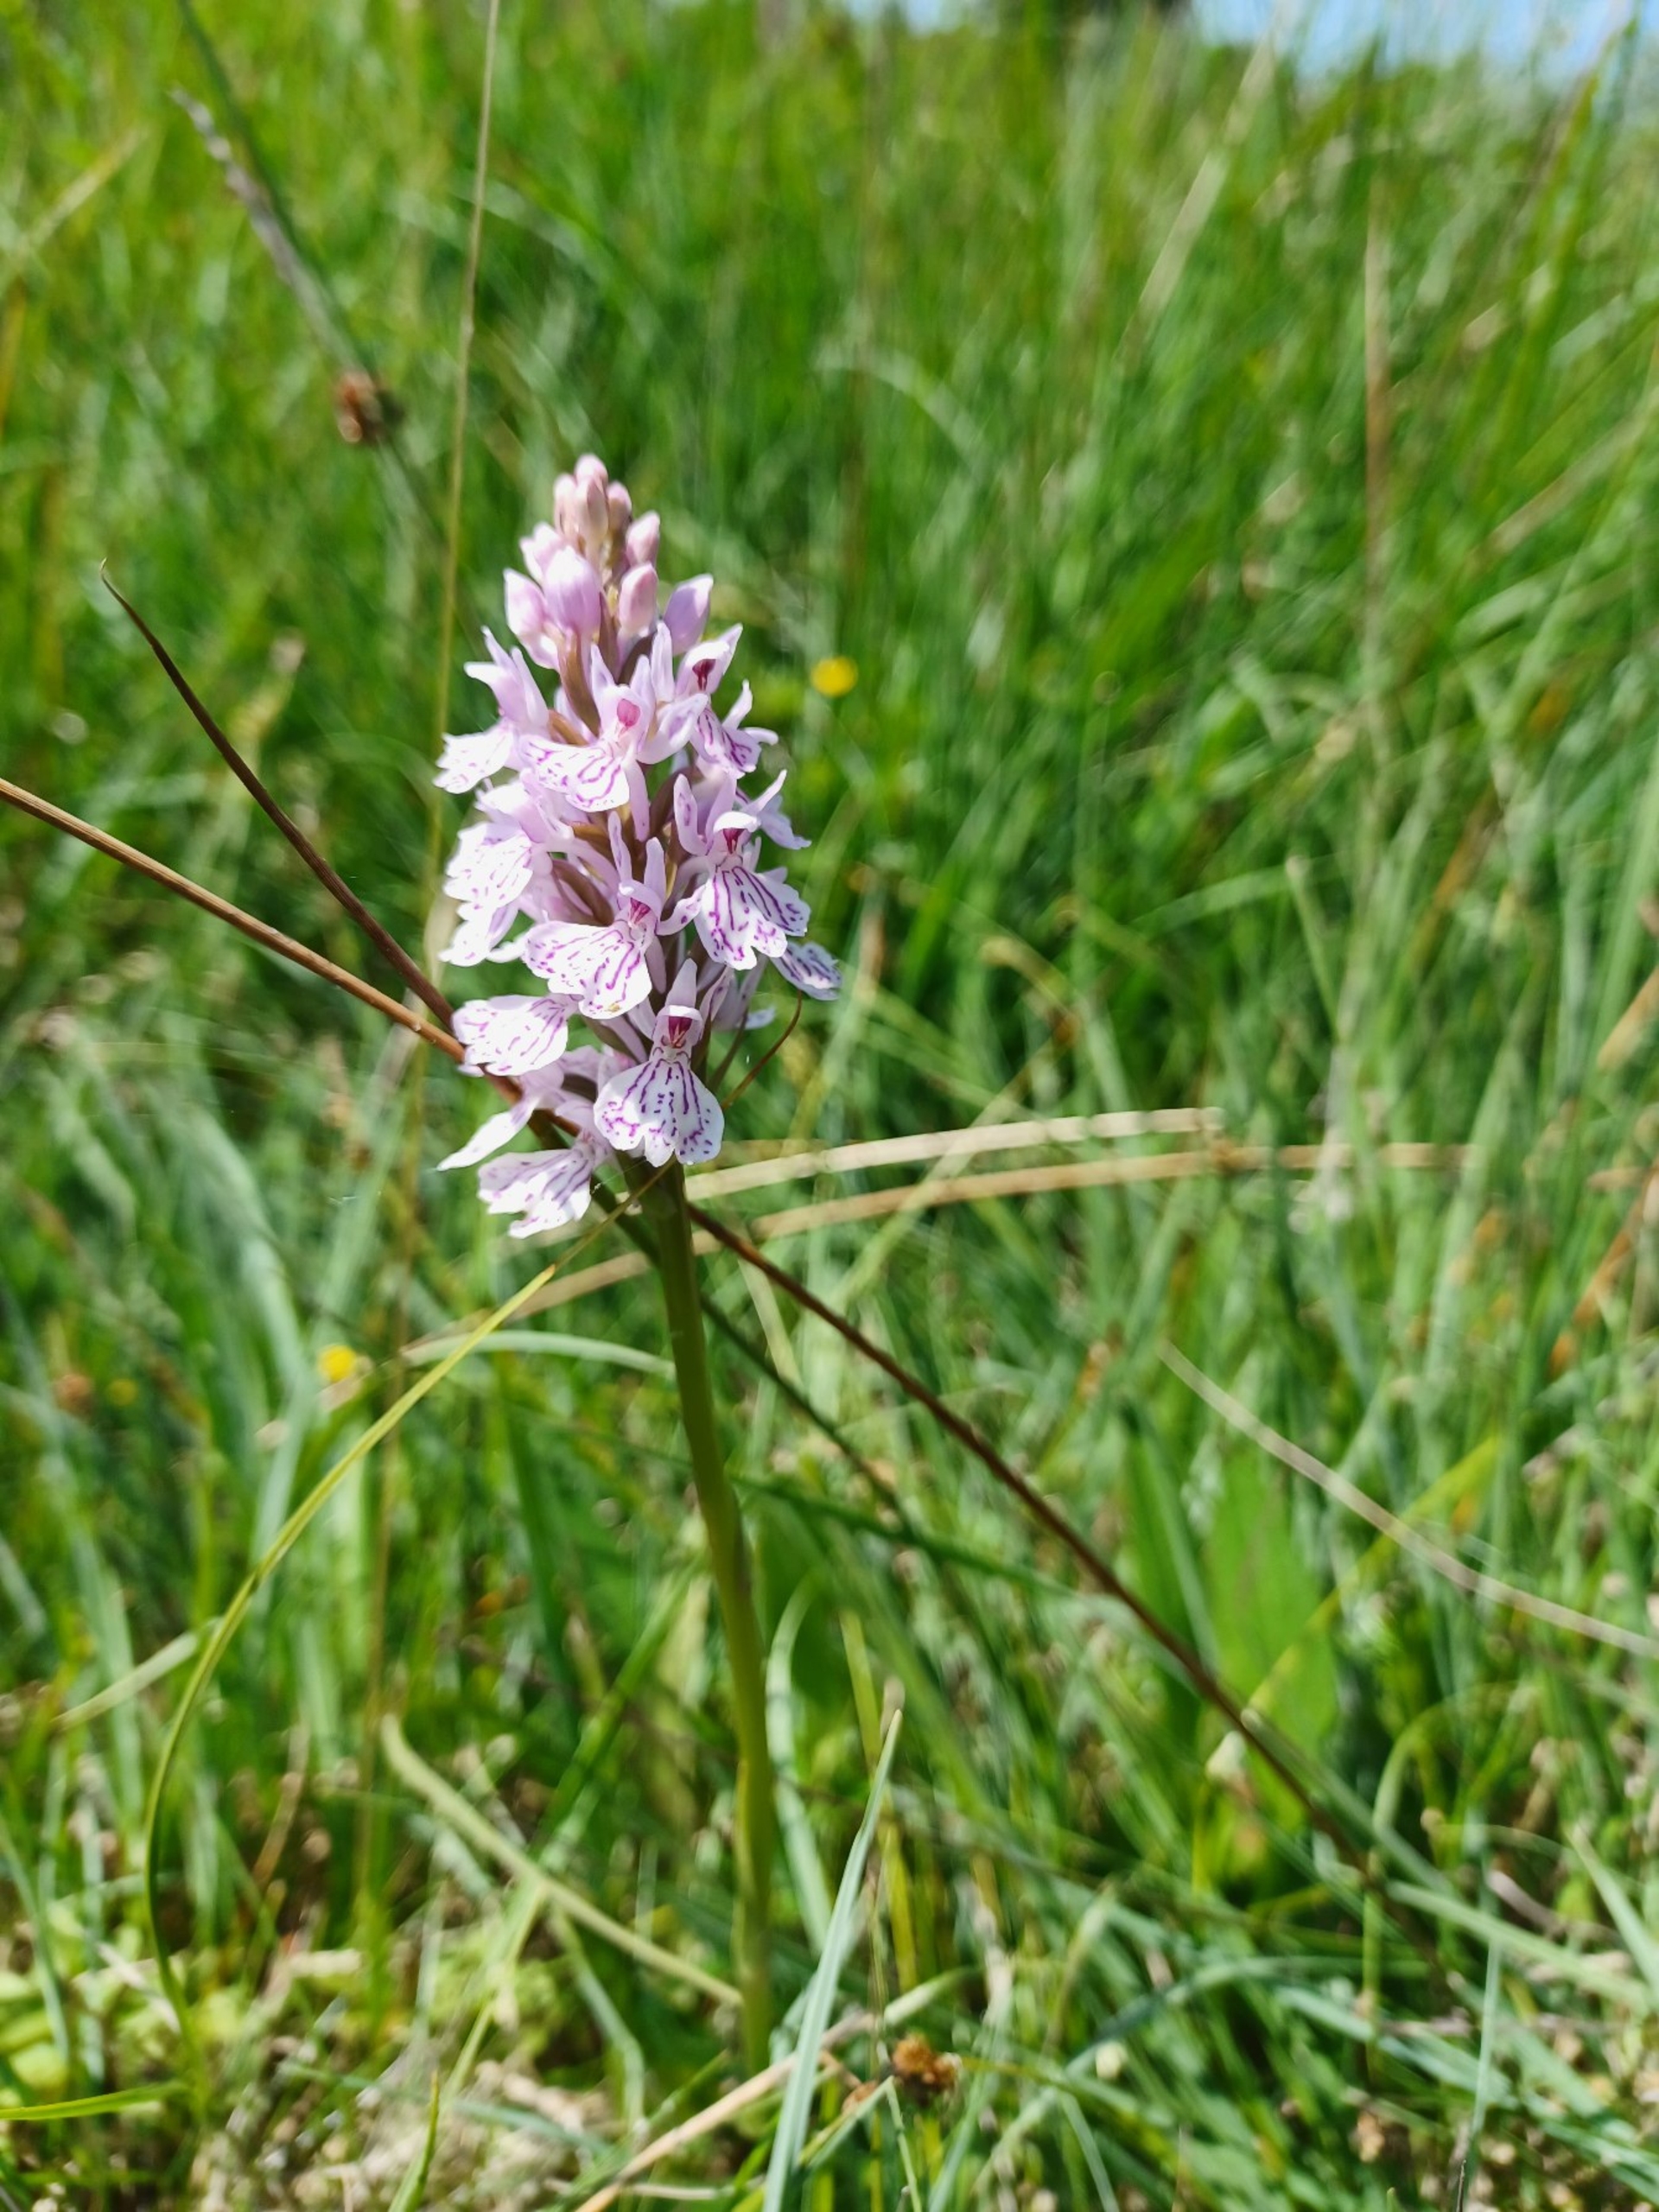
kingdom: Plantae
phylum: Tracheophyta
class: Liliopsida
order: Asparagales
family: Orchidaceae
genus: Dactylorhiza
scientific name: Dactylorhiza maculata
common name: Plettet gøgeurt
